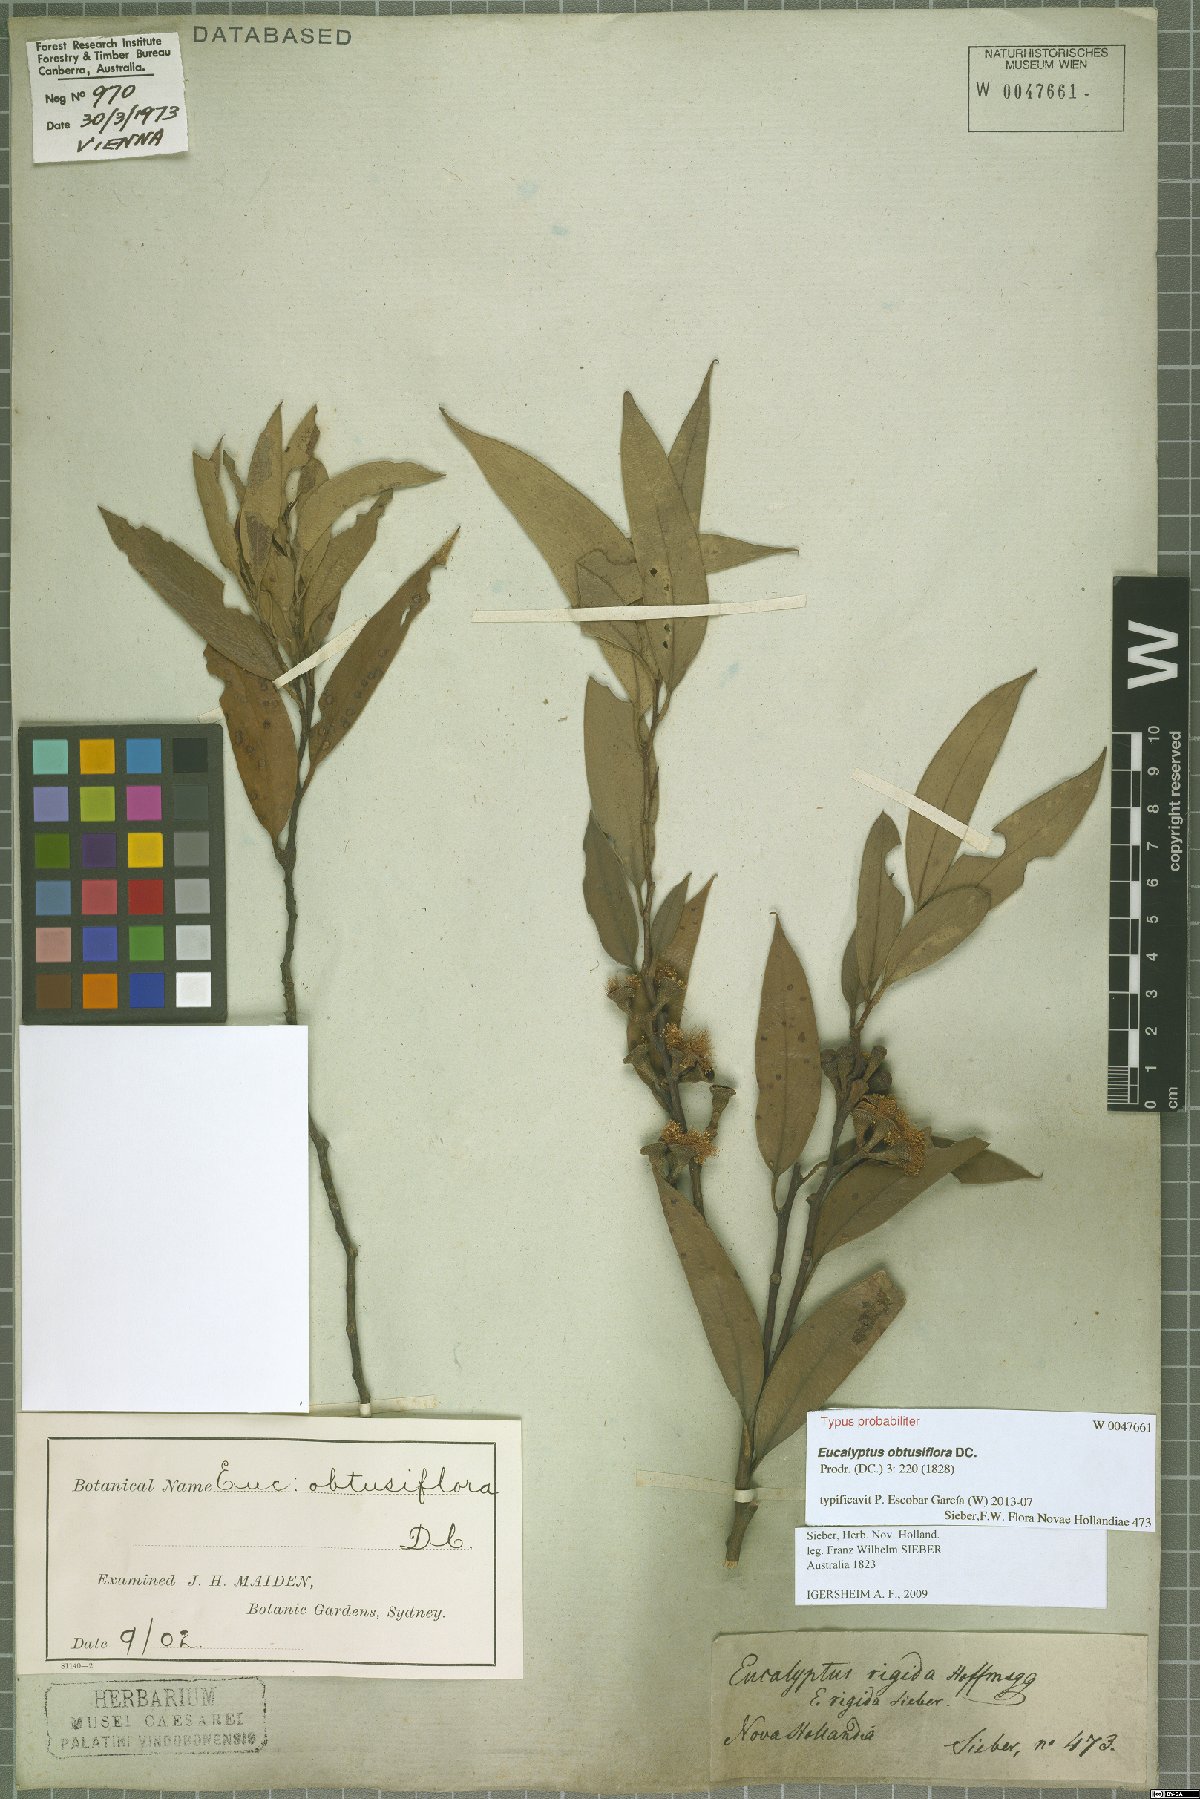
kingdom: Plantae
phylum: Tracheophyta
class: Magnoliopsida
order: Myrtales
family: Myrtaceae
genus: Eucalyptus
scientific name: Eucalyptus obtusiflora
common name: Dongara-mallee
